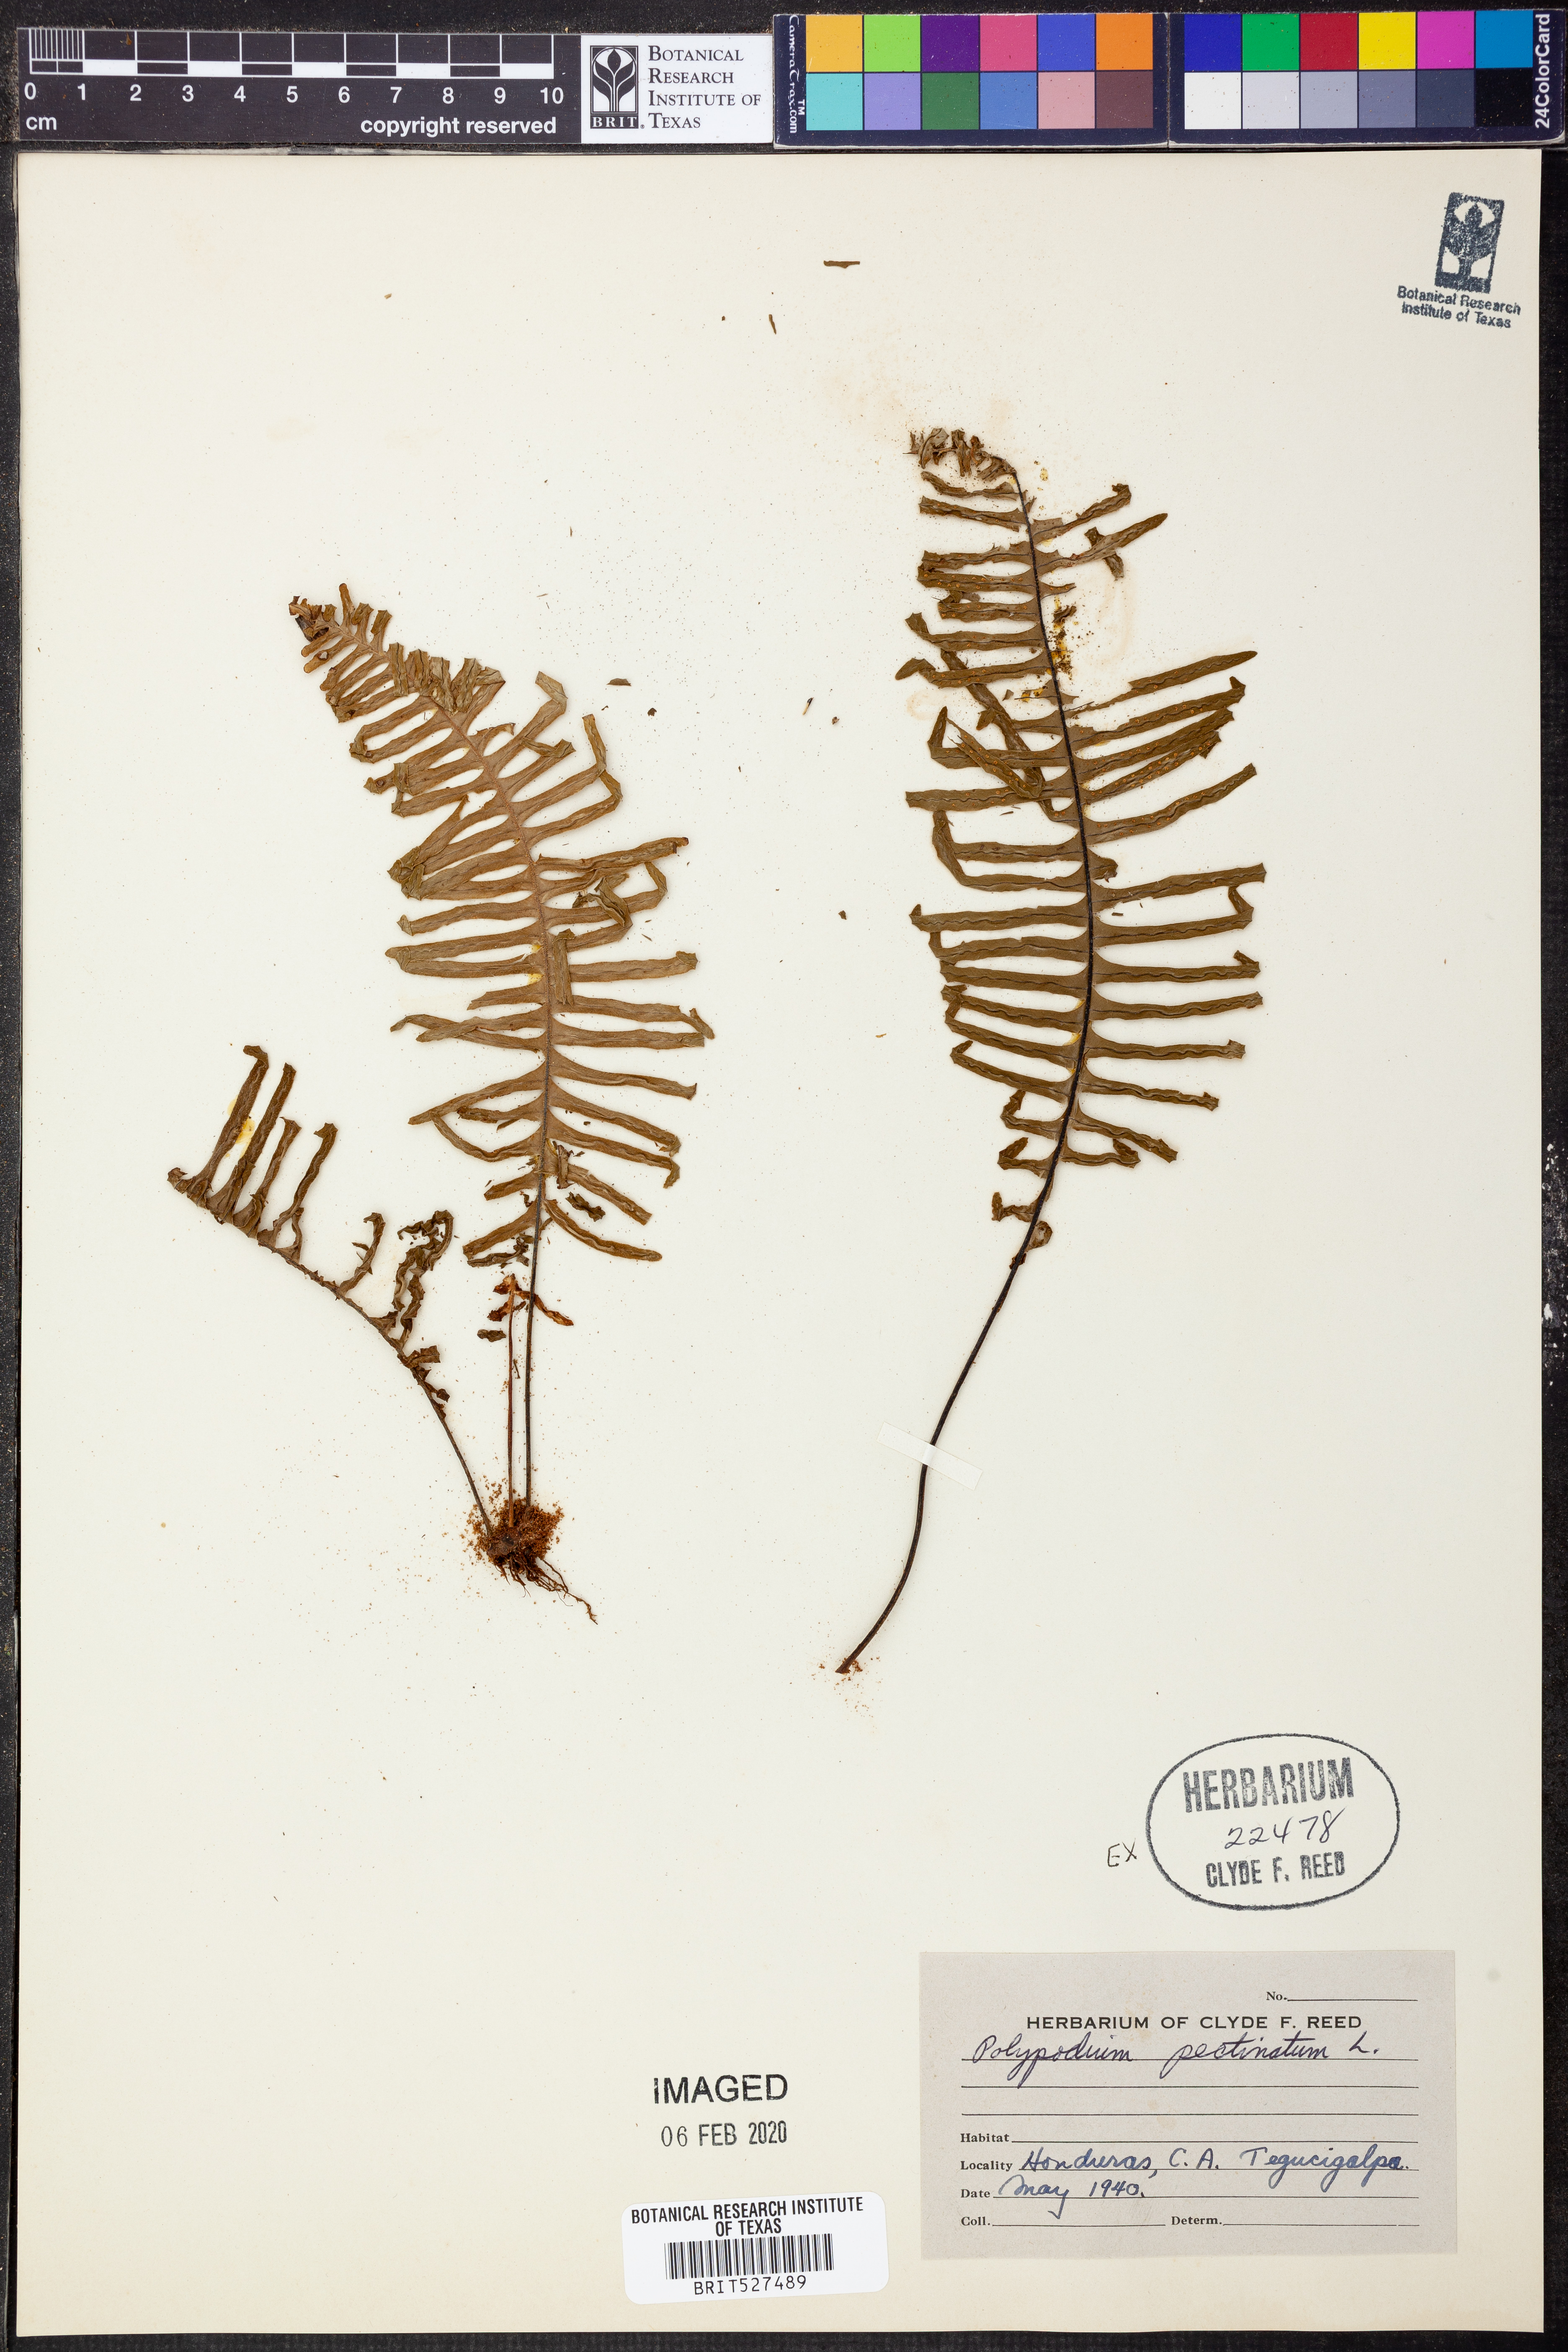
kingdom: Plantae
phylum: Tracheophyta
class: Polypodiopsida
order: Polypodiales
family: Polypodiaceae
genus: Pecluma
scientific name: Pecluma pectinata
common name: Msasa fern
